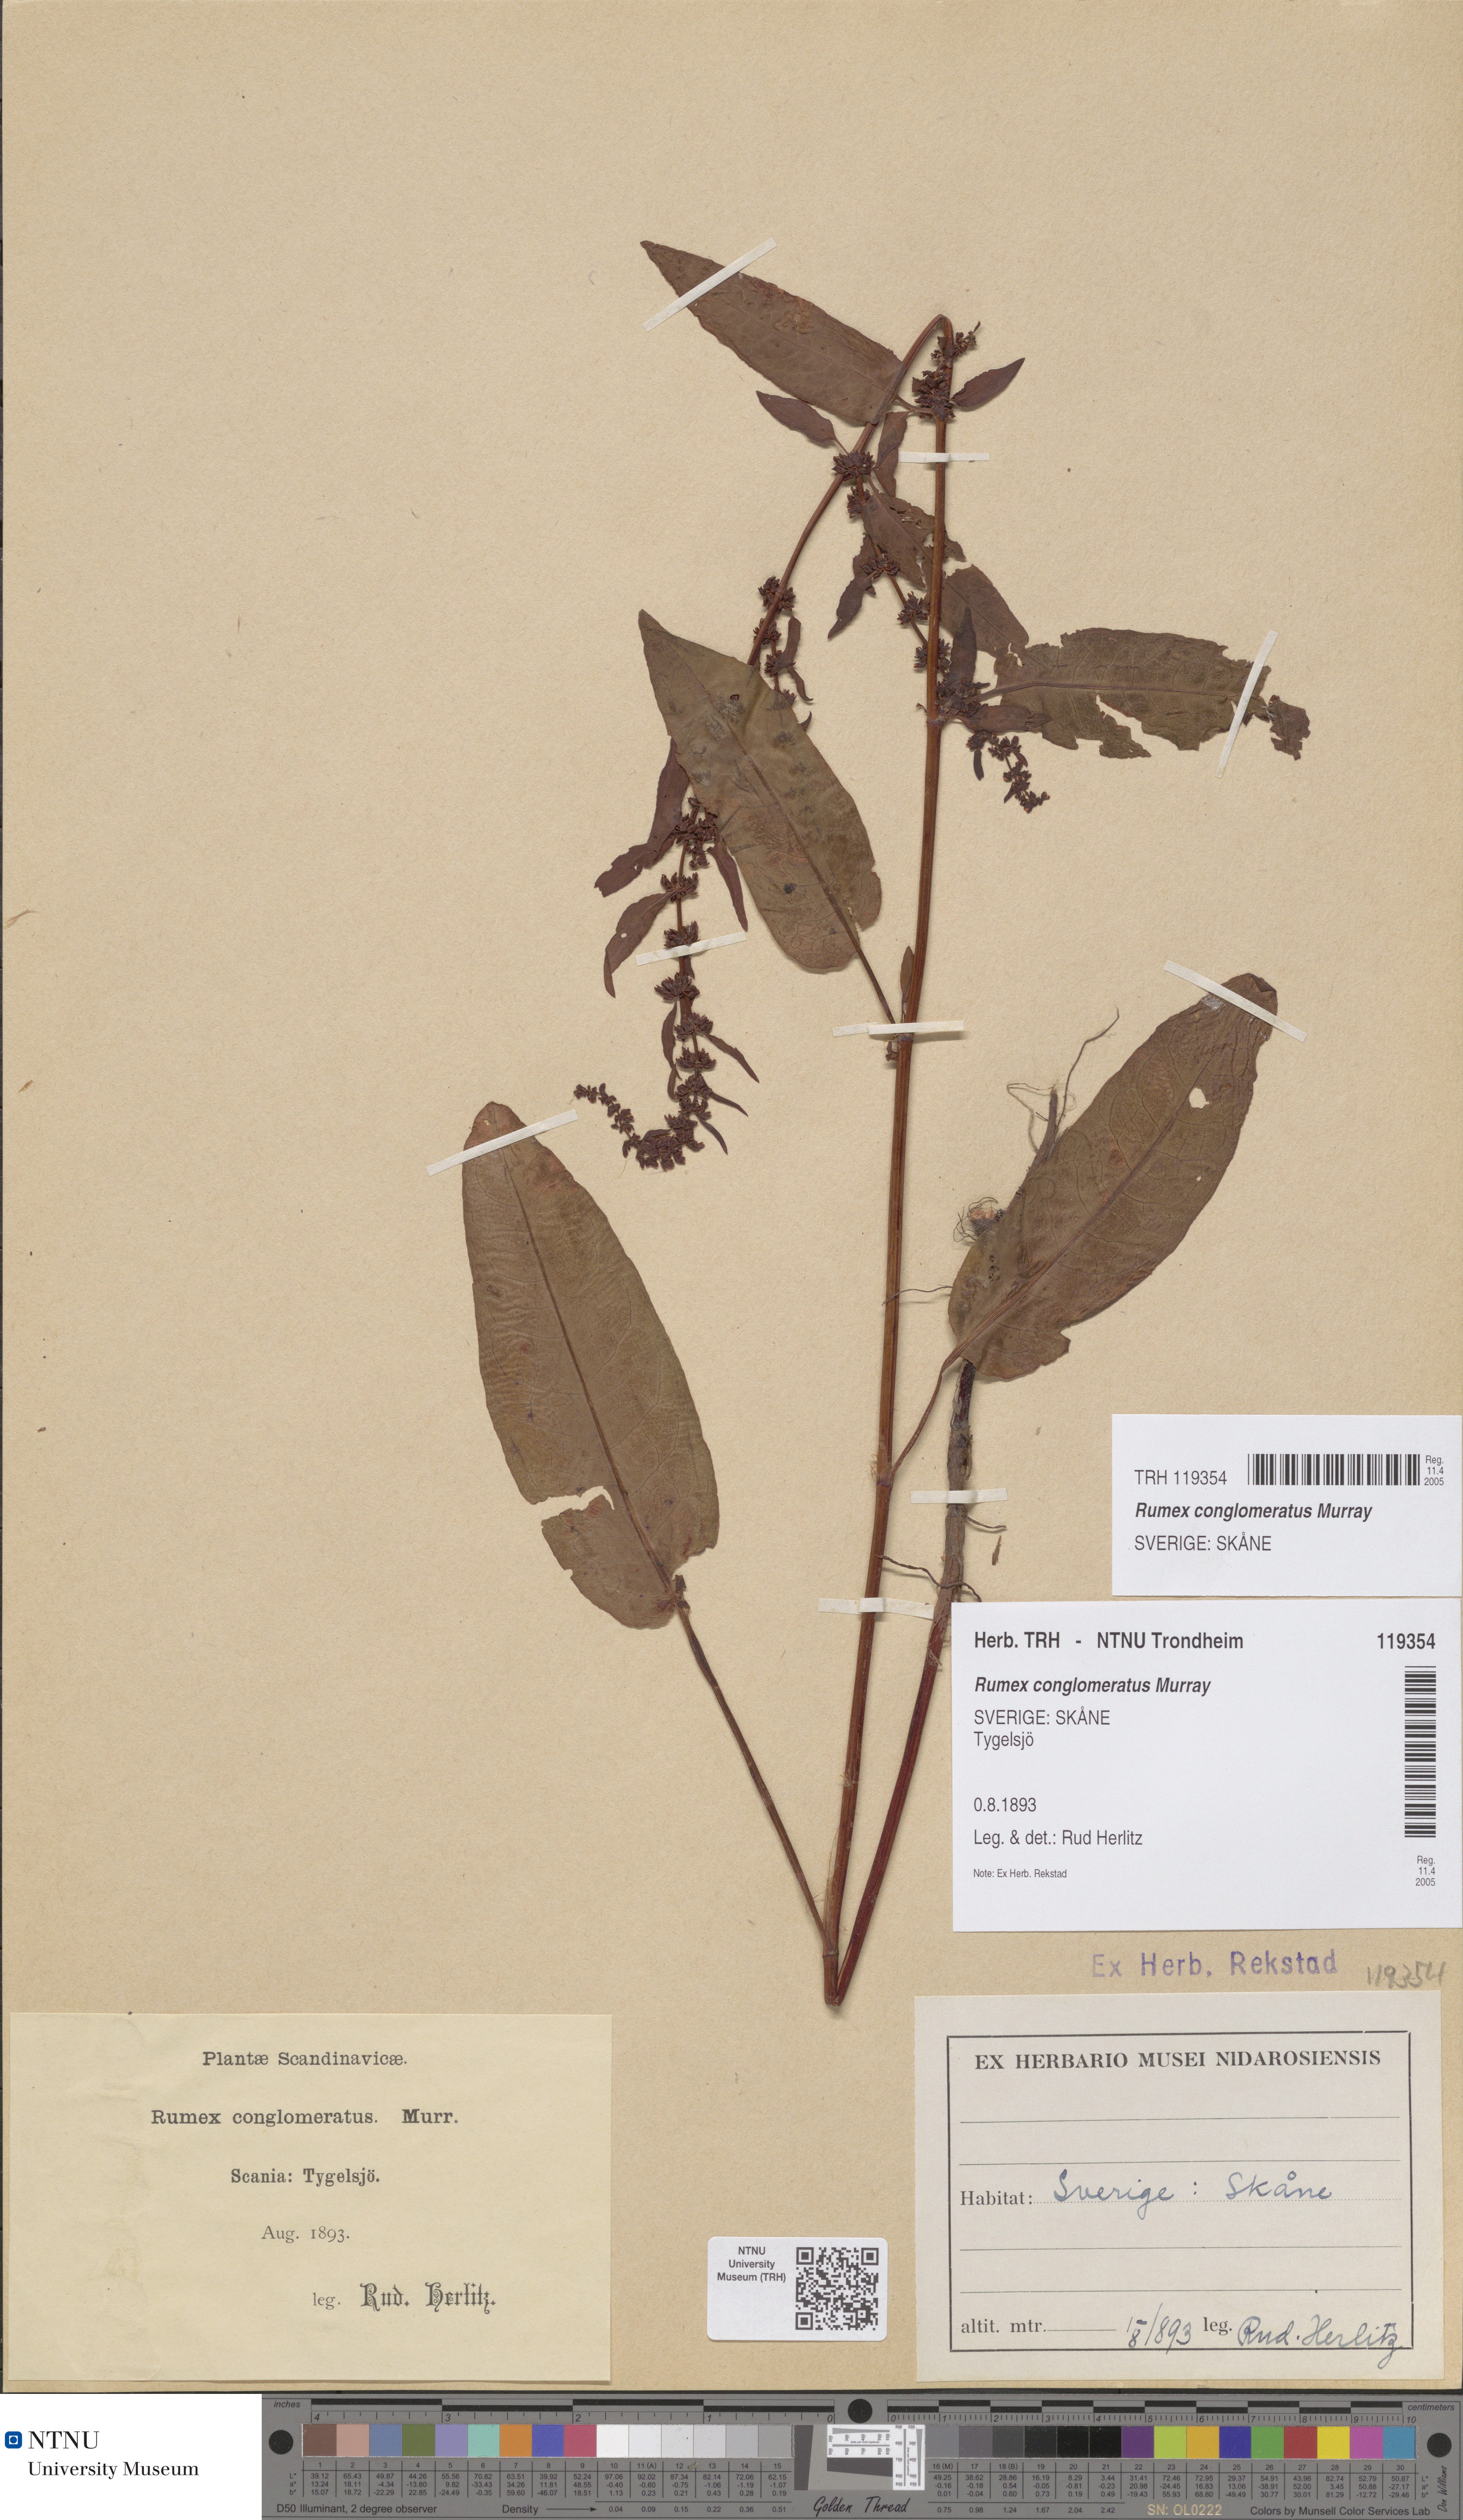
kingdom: Plantae
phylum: Tracheophyta
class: Magnoliopsida
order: Caryophyllales
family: Polygonaceae
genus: Rumex
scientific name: Rumex conglomeratus
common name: Clustered dock
